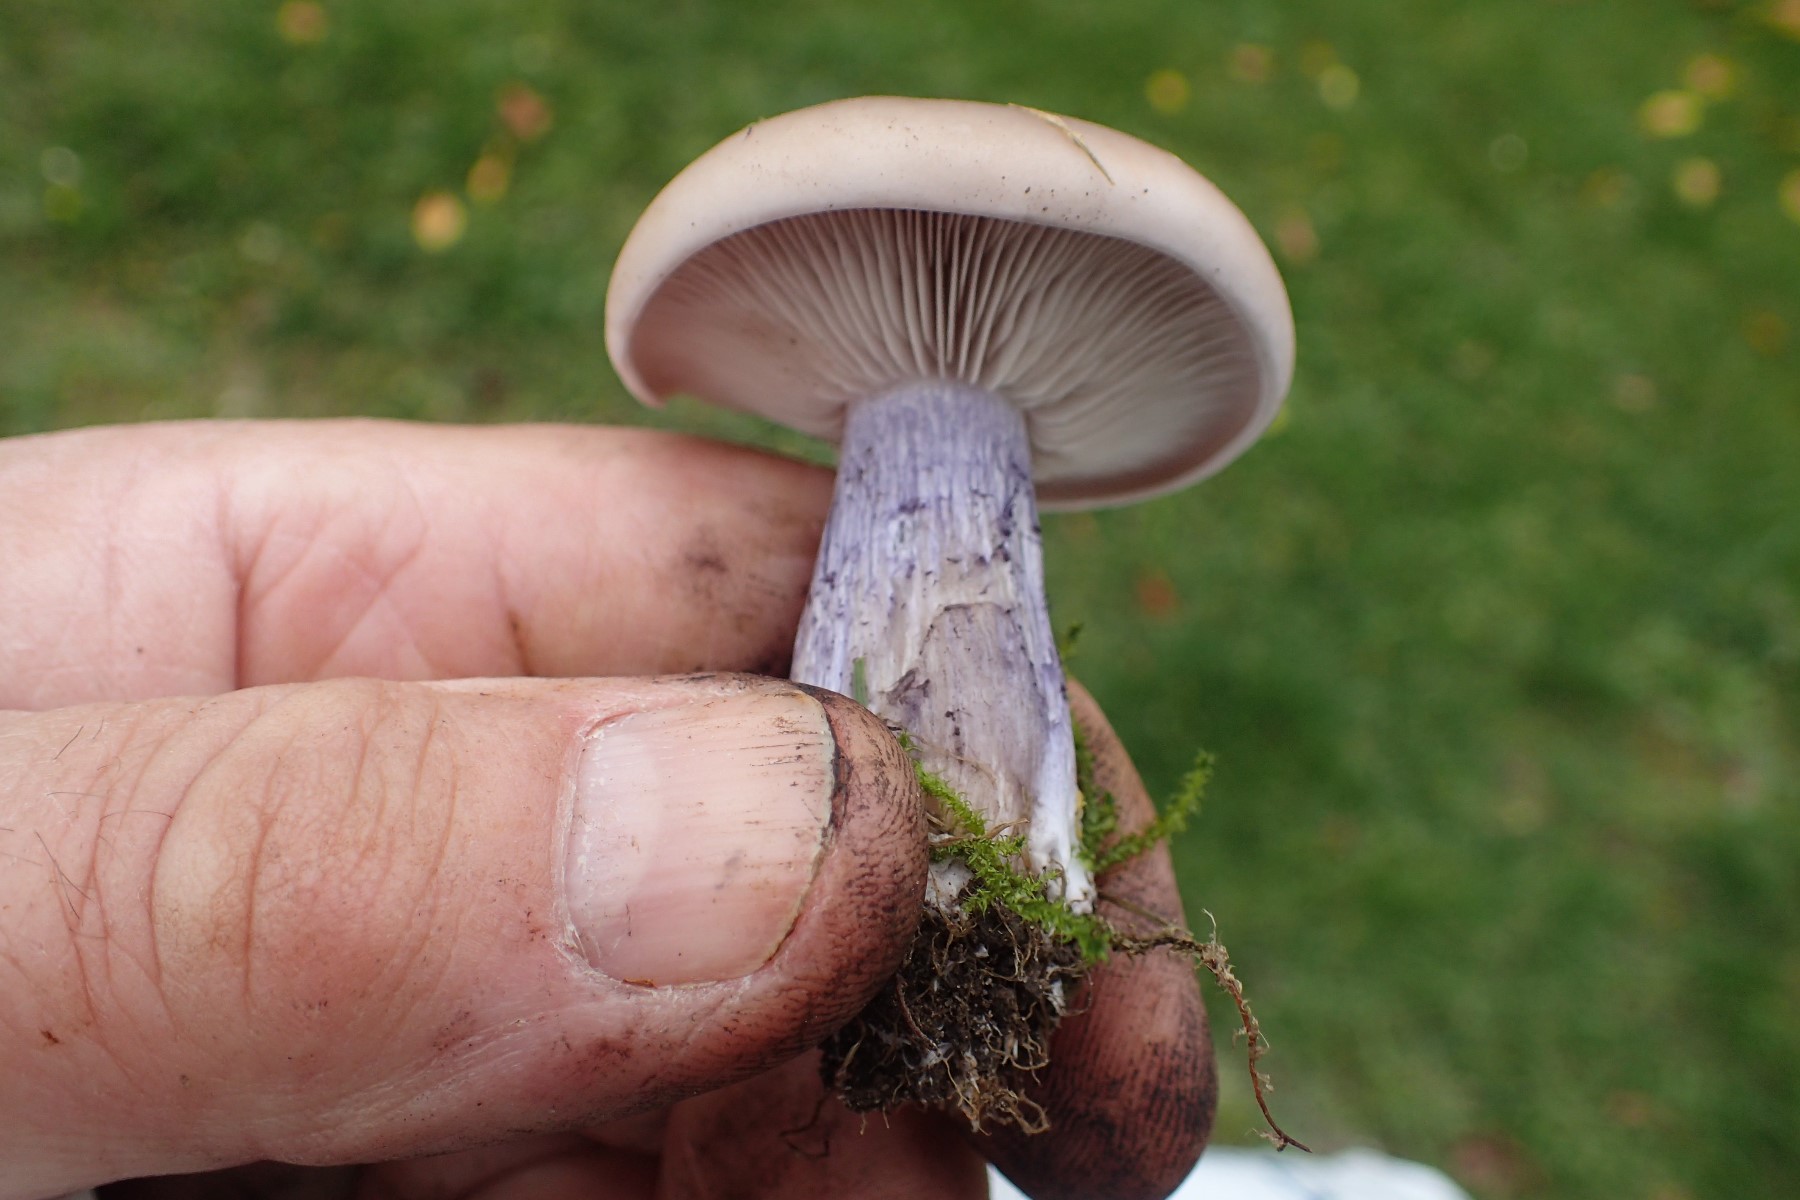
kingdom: Fungi
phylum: Basidiomycota
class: Agaricomycetes
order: Agaricales
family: Tricholomataceae
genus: Lepista
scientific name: Lepista personata
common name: bleg hekseringshat
